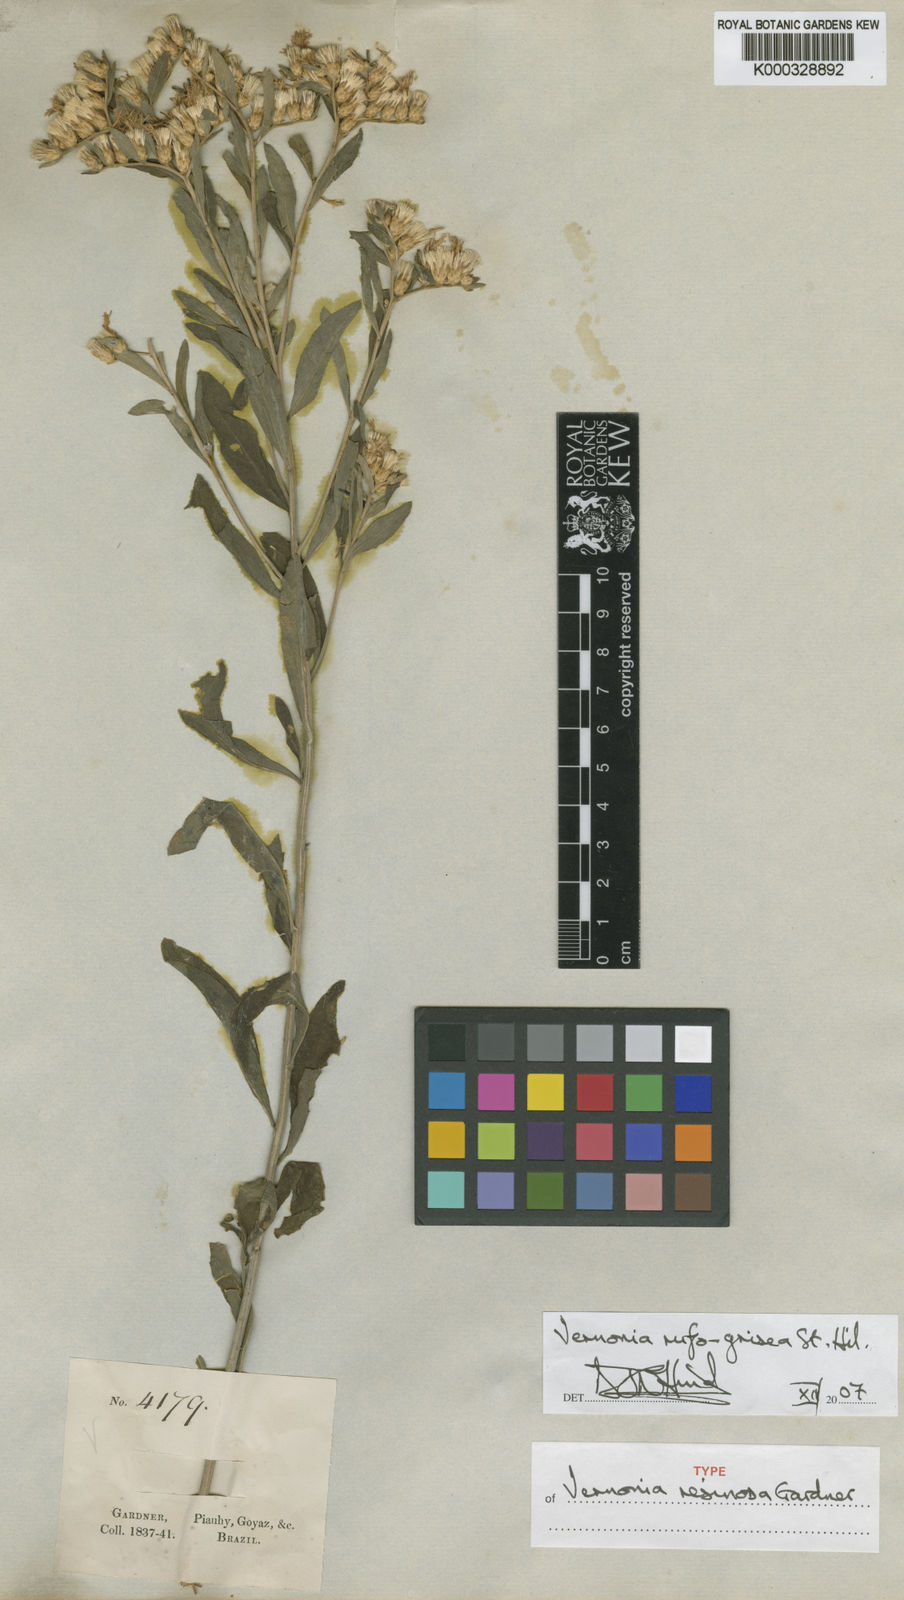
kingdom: Plantae
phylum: Tracheophyta
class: Magnoliopsida
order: Asterales
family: Asteraceae
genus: Lepidaploa
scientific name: Lepidaploa rufogrisea
